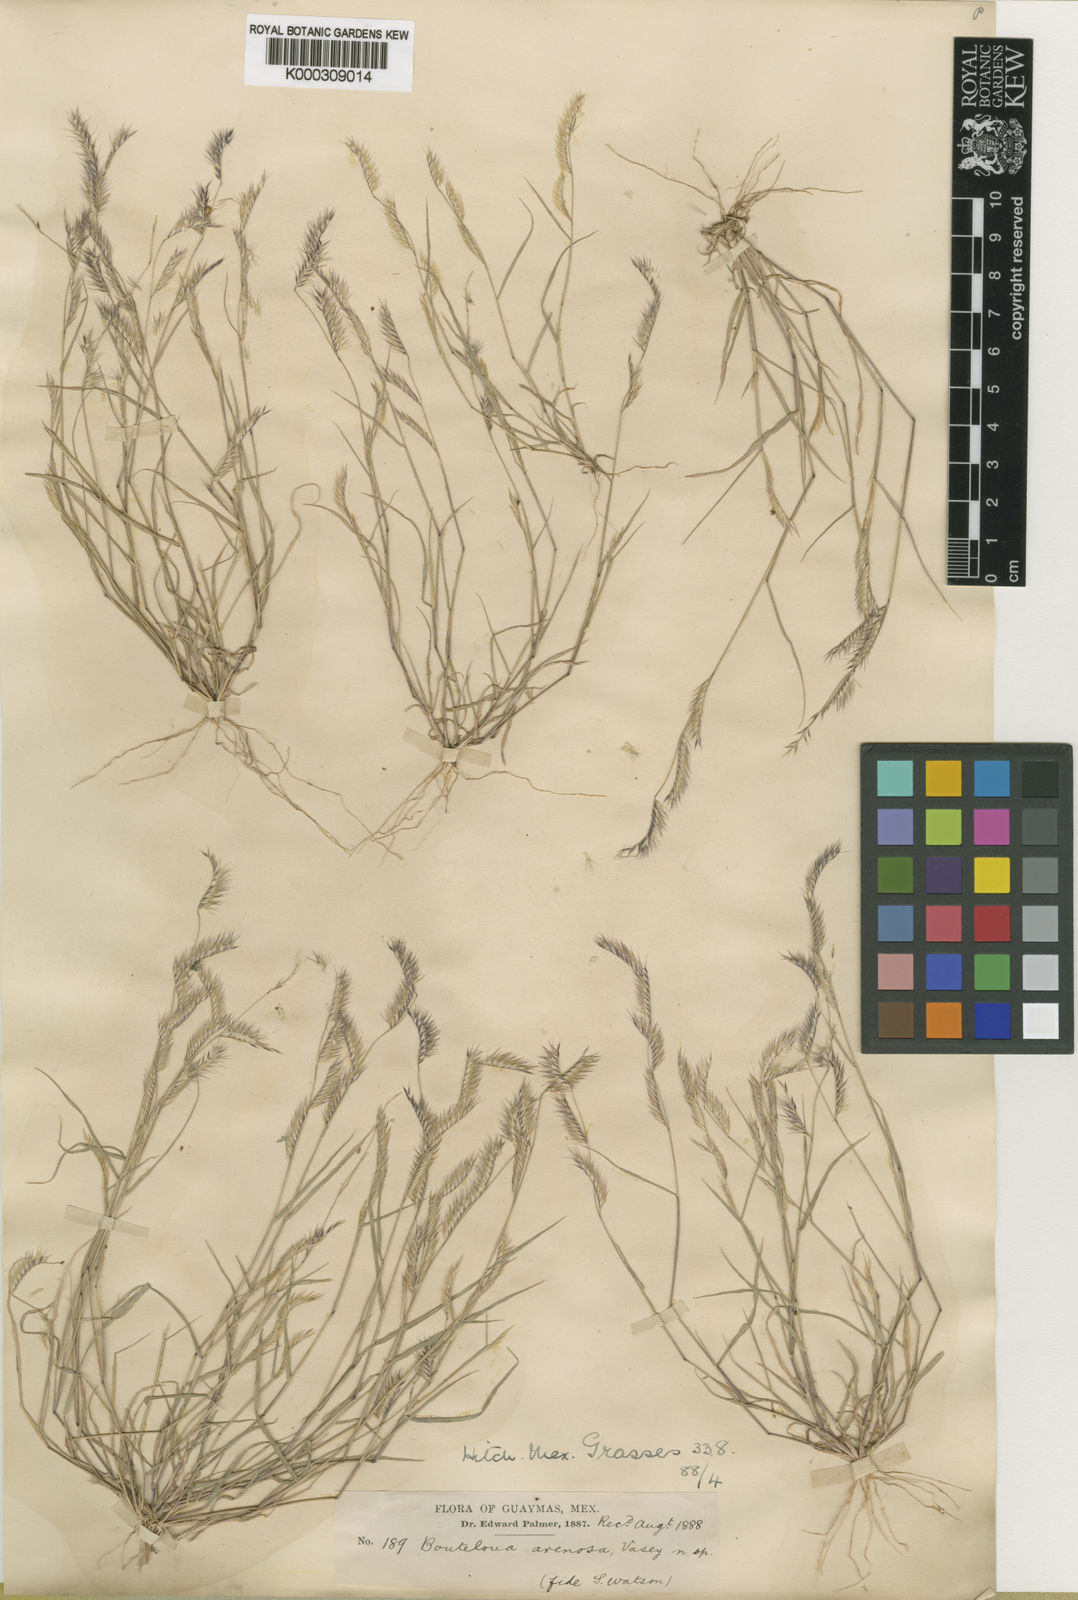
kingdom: Plantae
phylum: Tracheophyta
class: Liliopsida
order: Poales
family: Poaceae
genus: Bouteloua
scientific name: Bouteloua barbata
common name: Six-weeks grama
